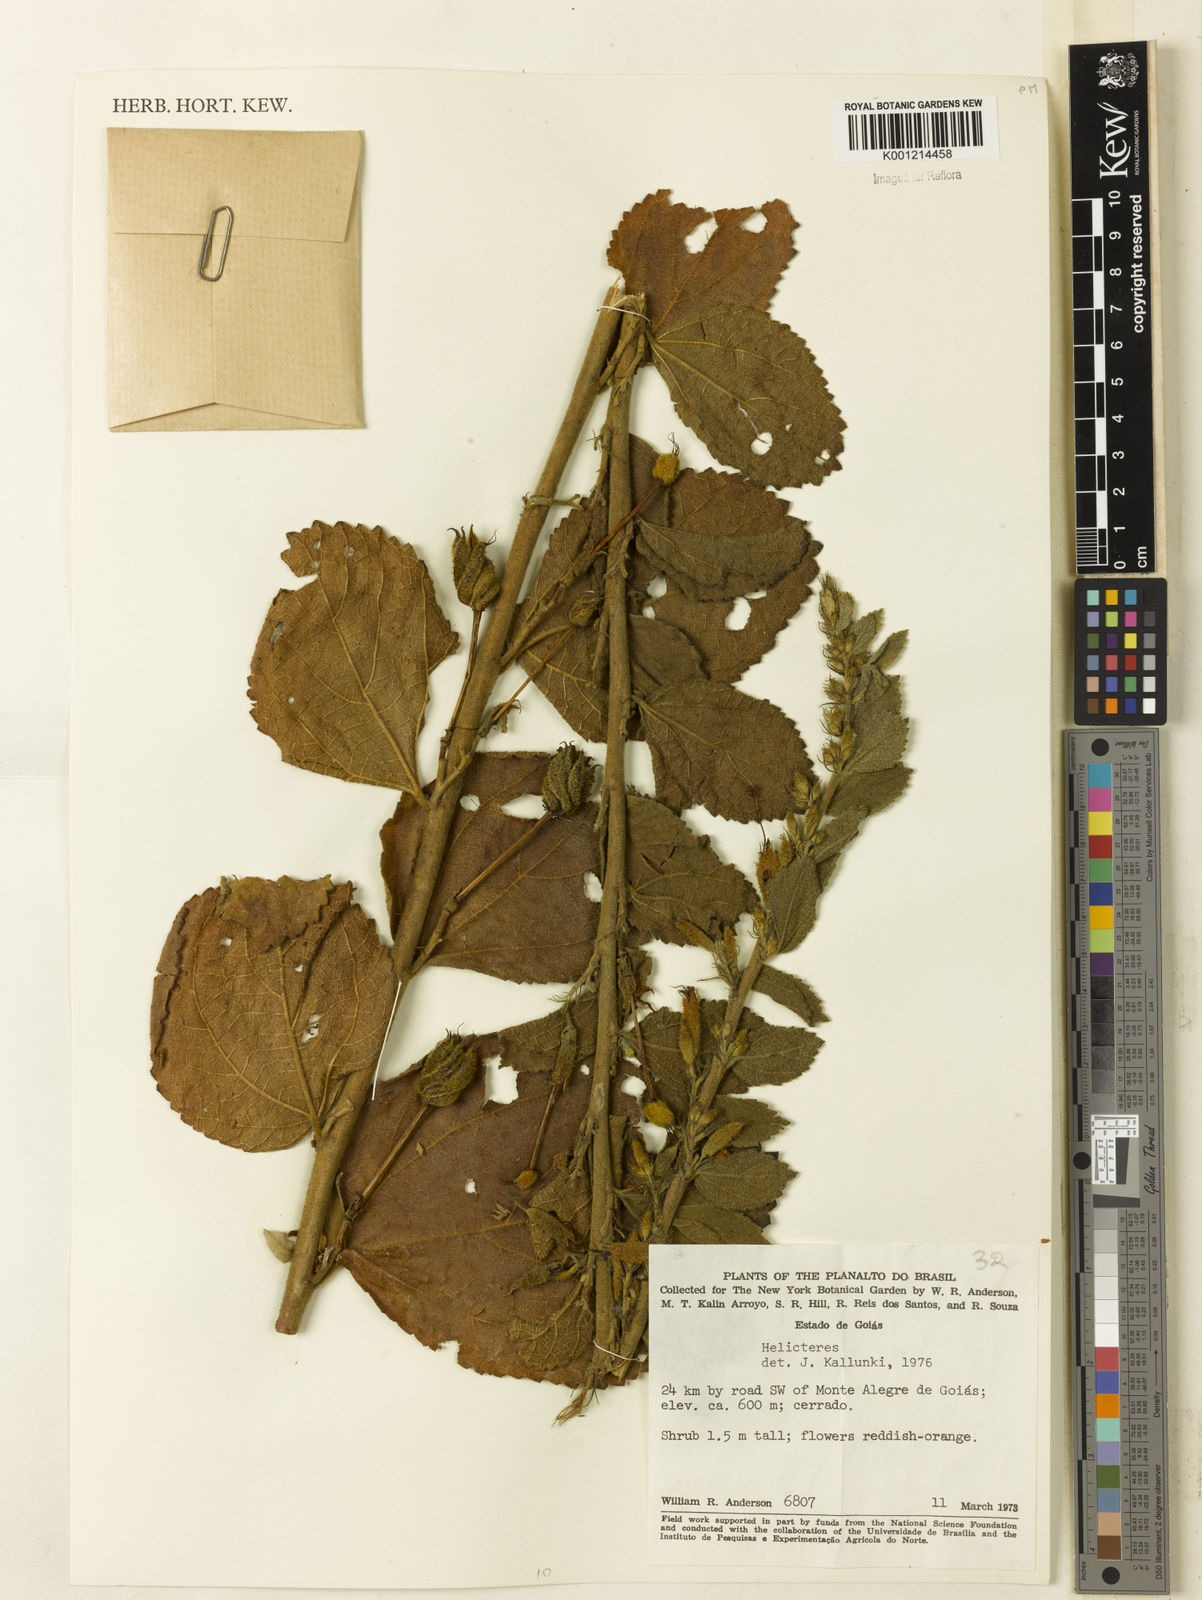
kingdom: Plantae
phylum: Tracheophyta
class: Magnoliopsida
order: Malvales
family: Malvaceae
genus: Helicteres
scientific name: Helicteres
